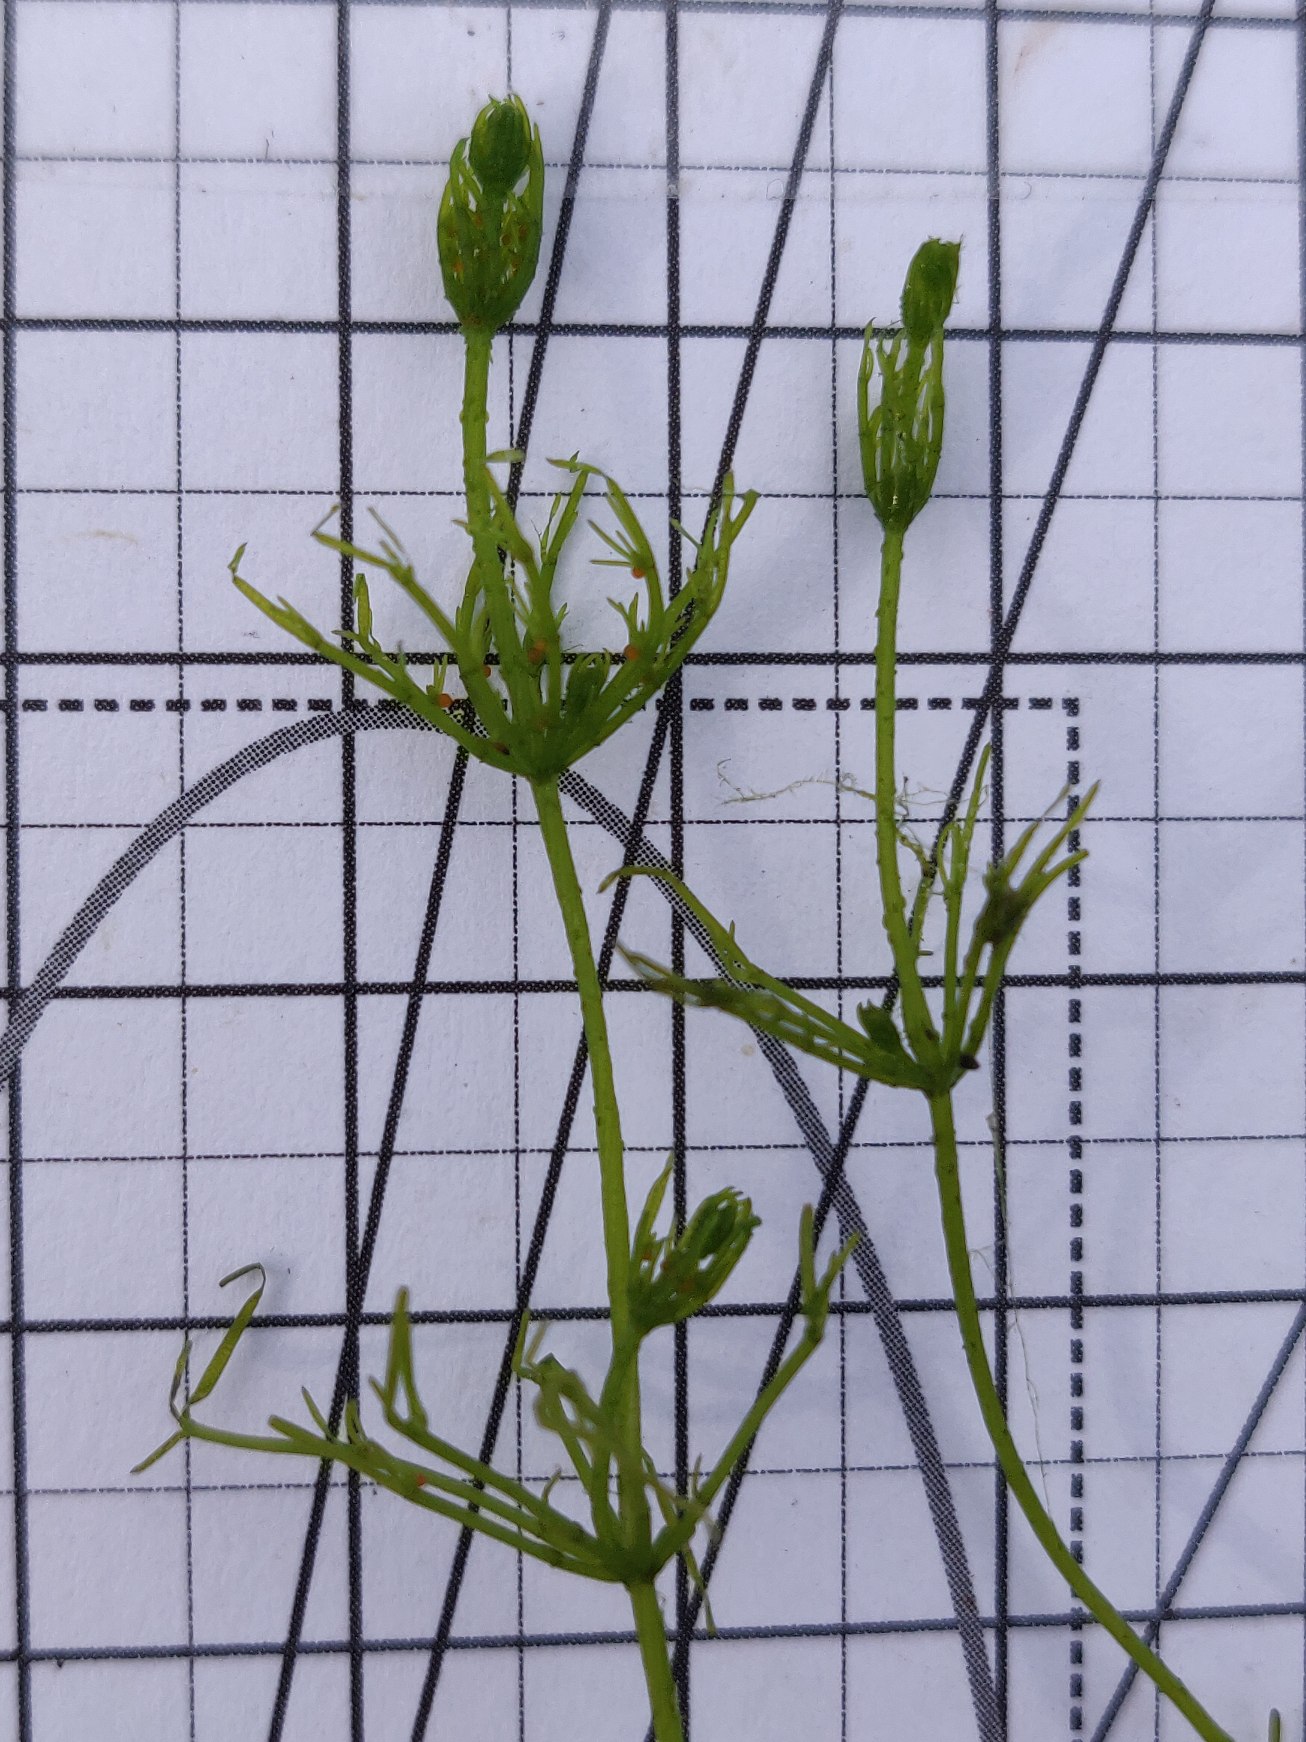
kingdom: Plantae
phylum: Charophyta
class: Charophyceae
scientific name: Charophyceae
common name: Kransnålalger
